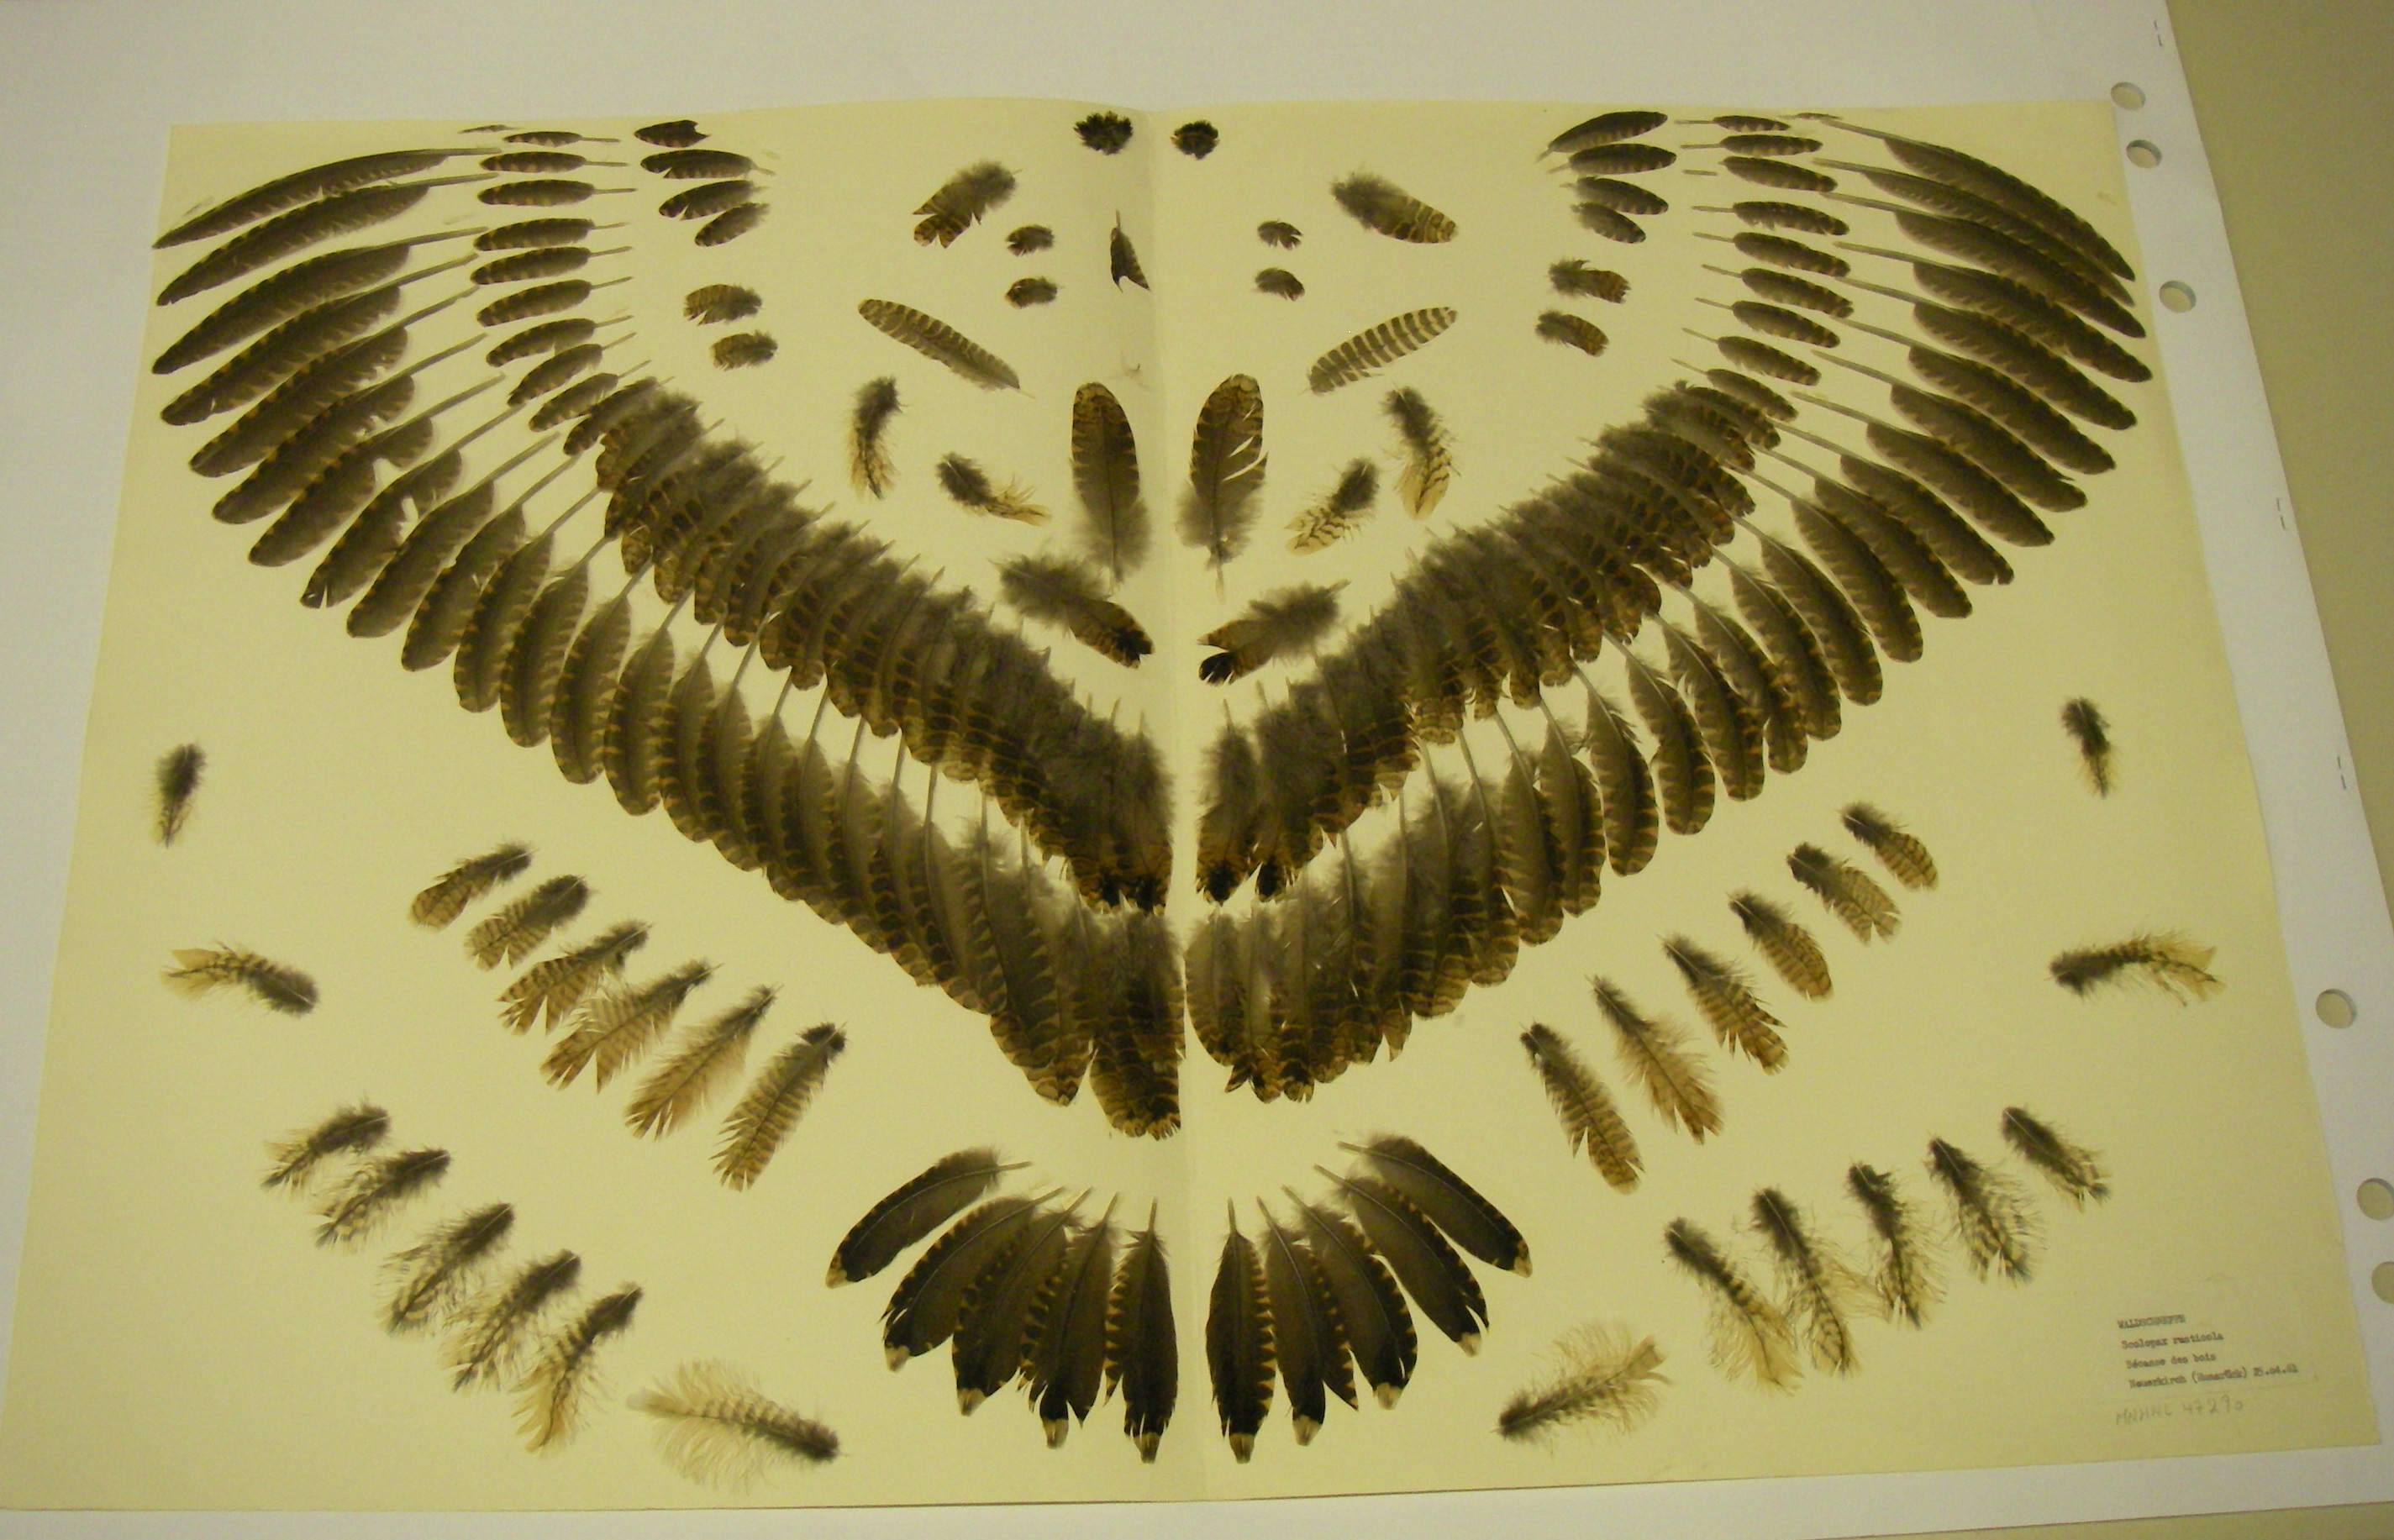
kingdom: Animalia
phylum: Chordata
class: Aves
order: Charadriiformes
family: Scolopacidae
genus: Scolopax
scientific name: Scolopax rusticola
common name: Eurasian woodcock
